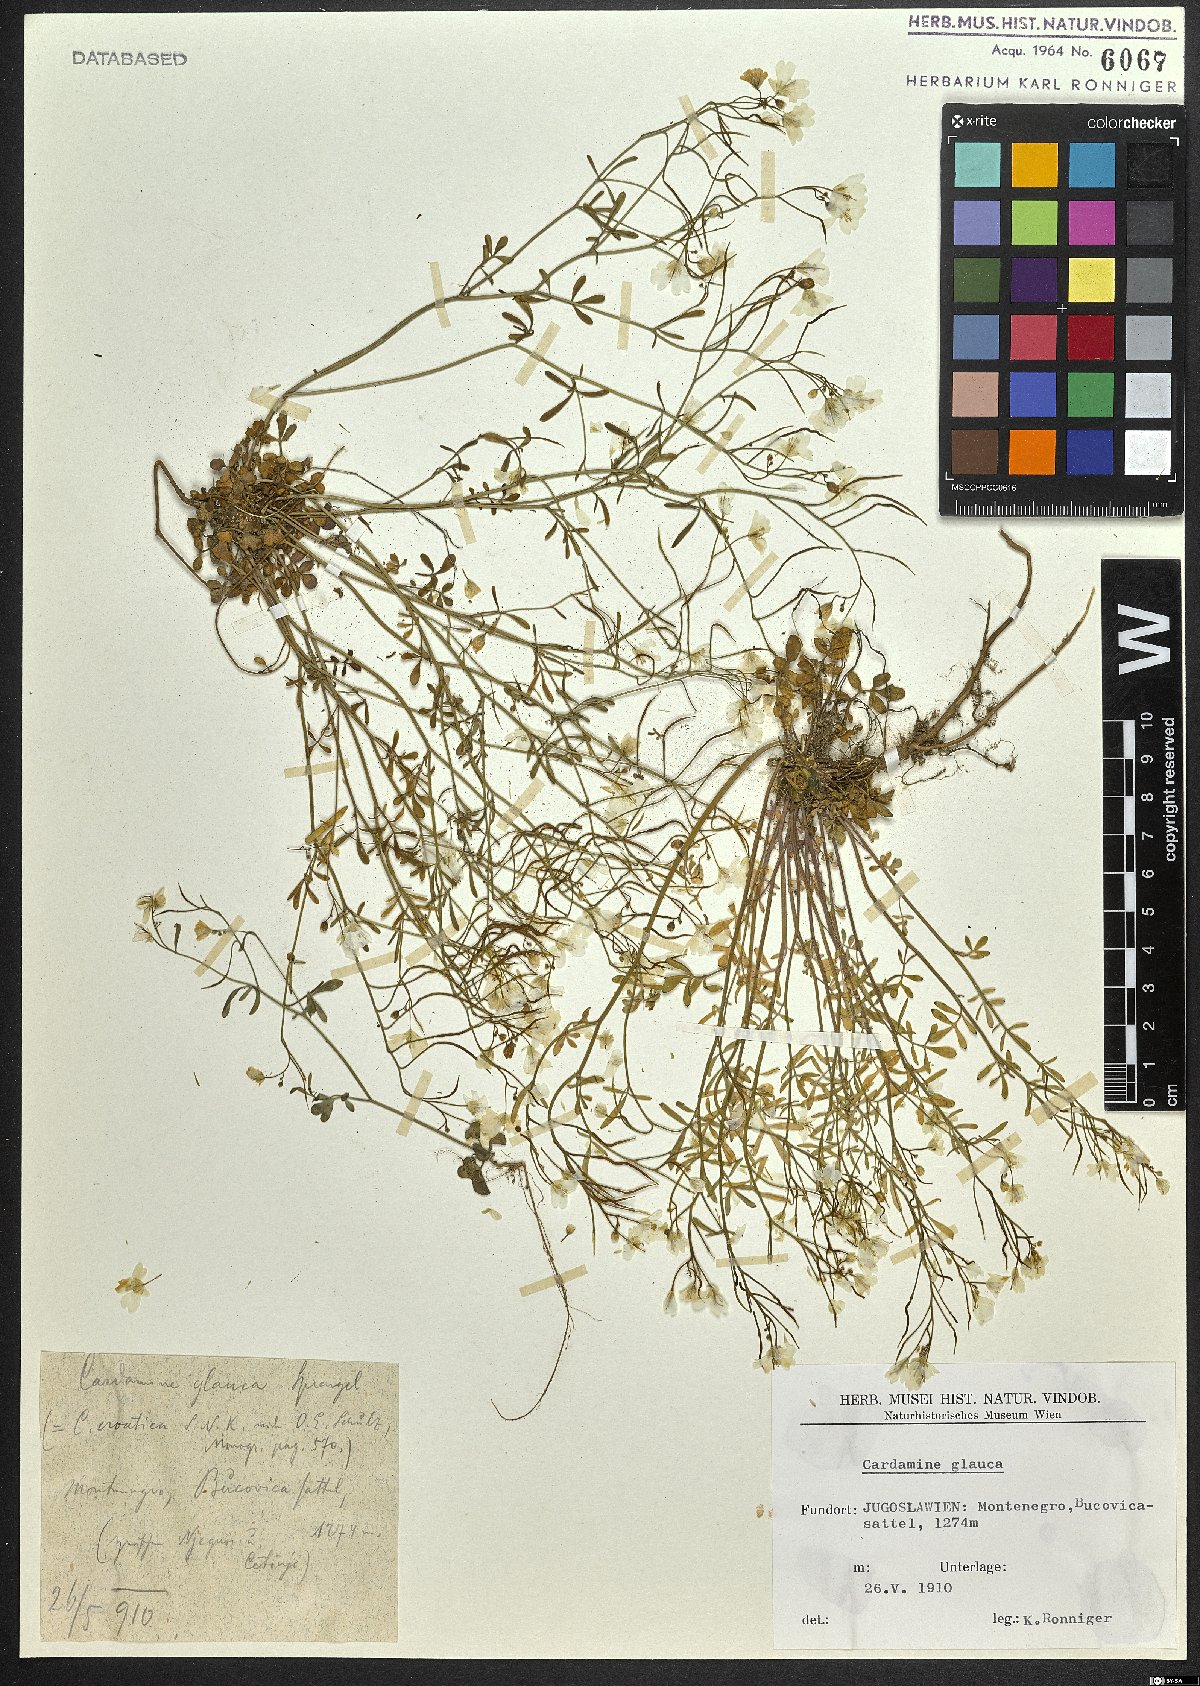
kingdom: Plantae
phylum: Tracheophyta
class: Magnoliopsida
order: Brassicales
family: Brassicaceae
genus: Cardamine
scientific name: Cardamine glauca
